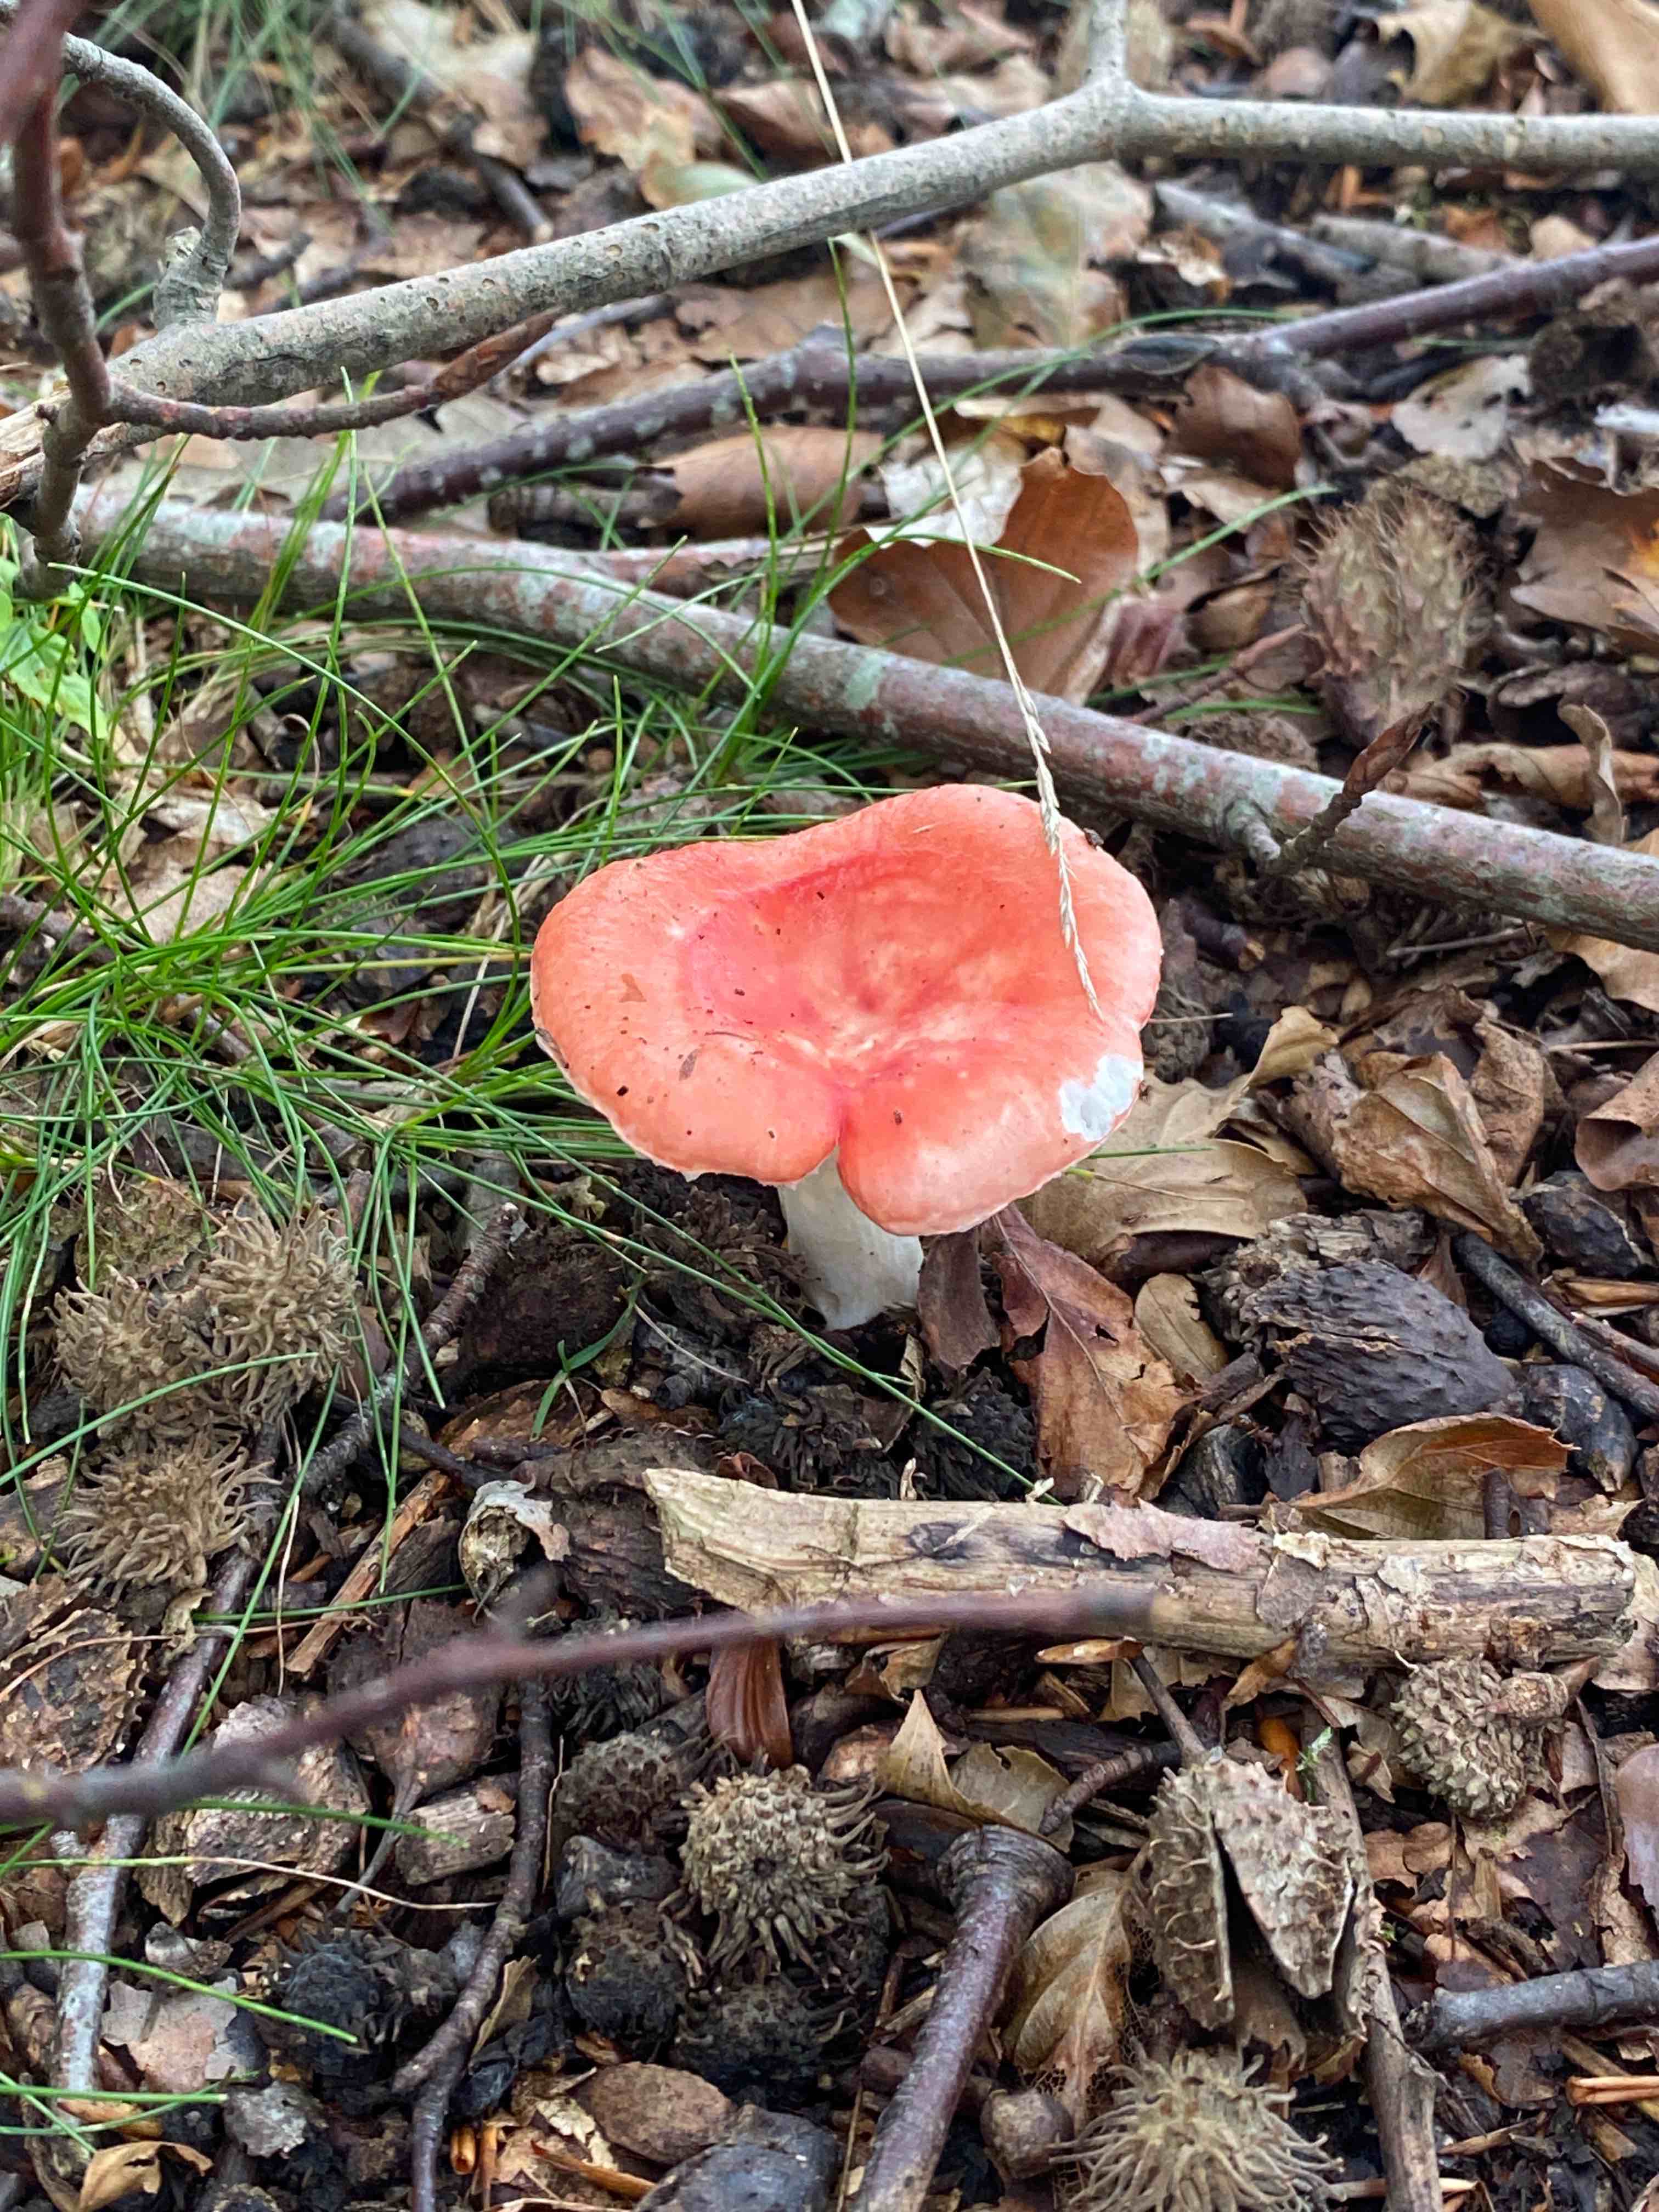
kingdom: Fungi
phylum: Basidiomycota
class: Agaricomycetes
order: Russulales
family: Russulaceae
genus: Russula
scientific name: Russula
